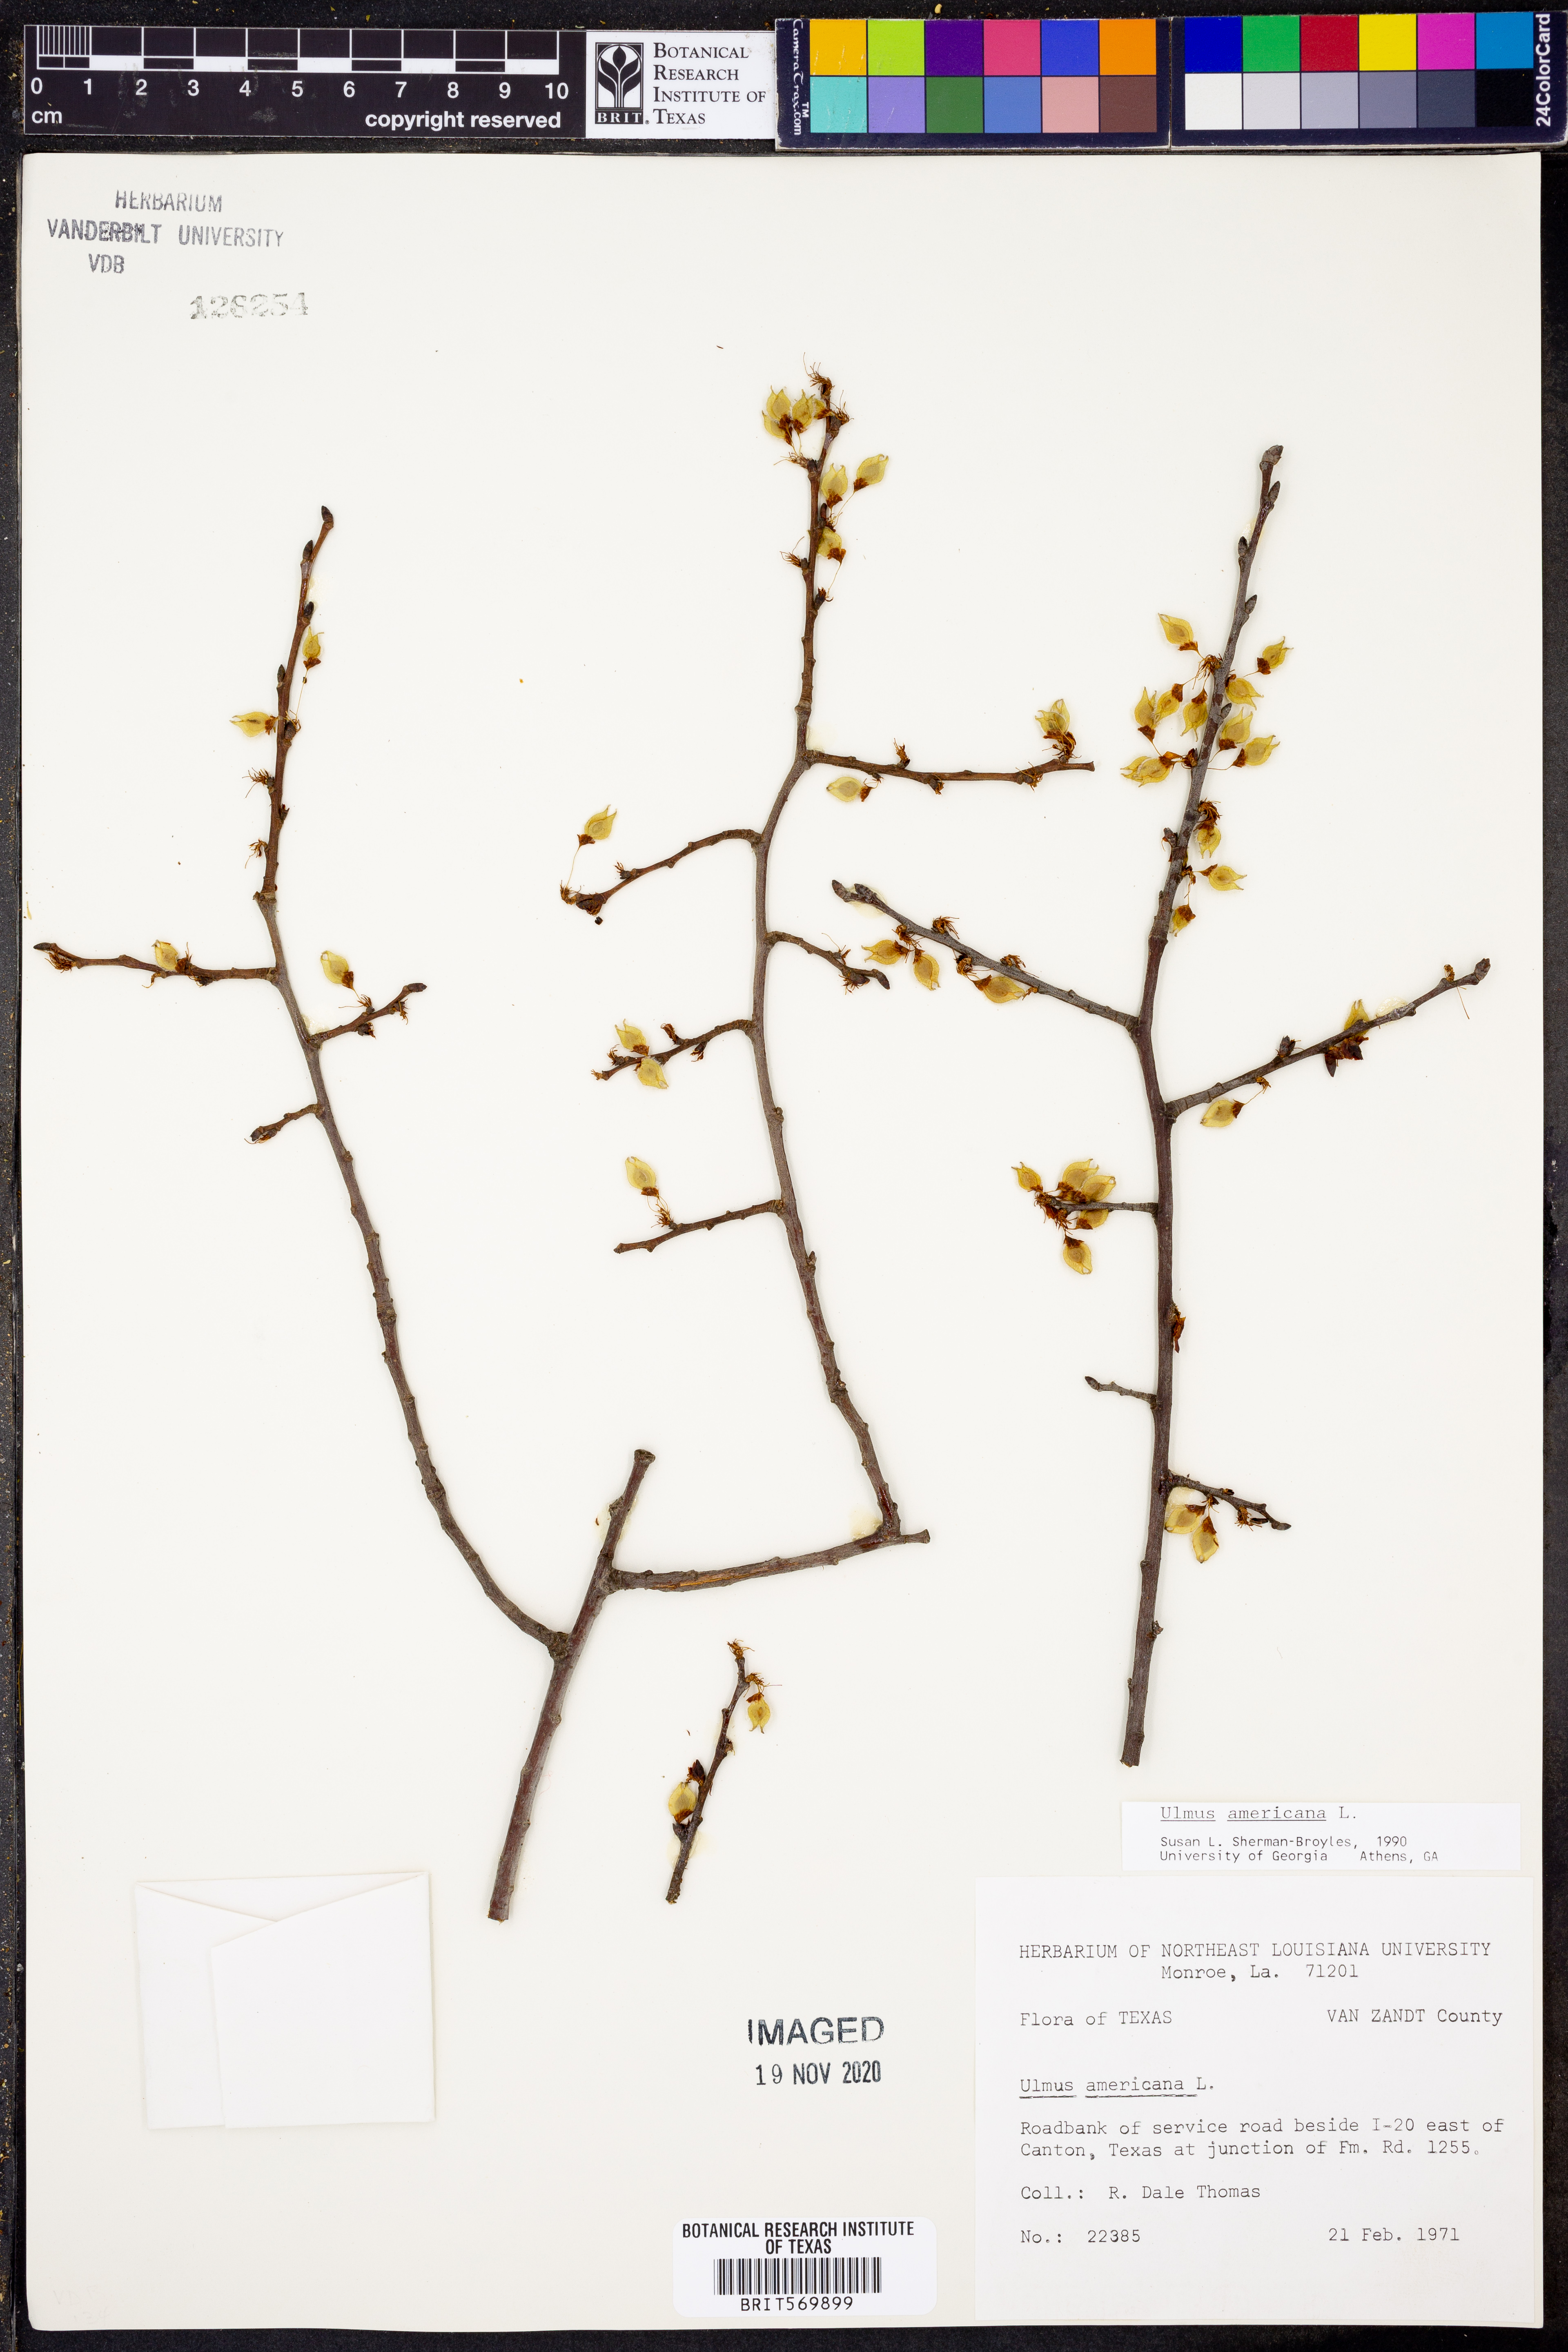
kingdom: Plantae
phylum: Tracheophyta
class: Magnoliopsida
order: Rosales
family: Ulmaceae
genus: Ulmus
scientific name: Ulmus americana
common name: American elm
